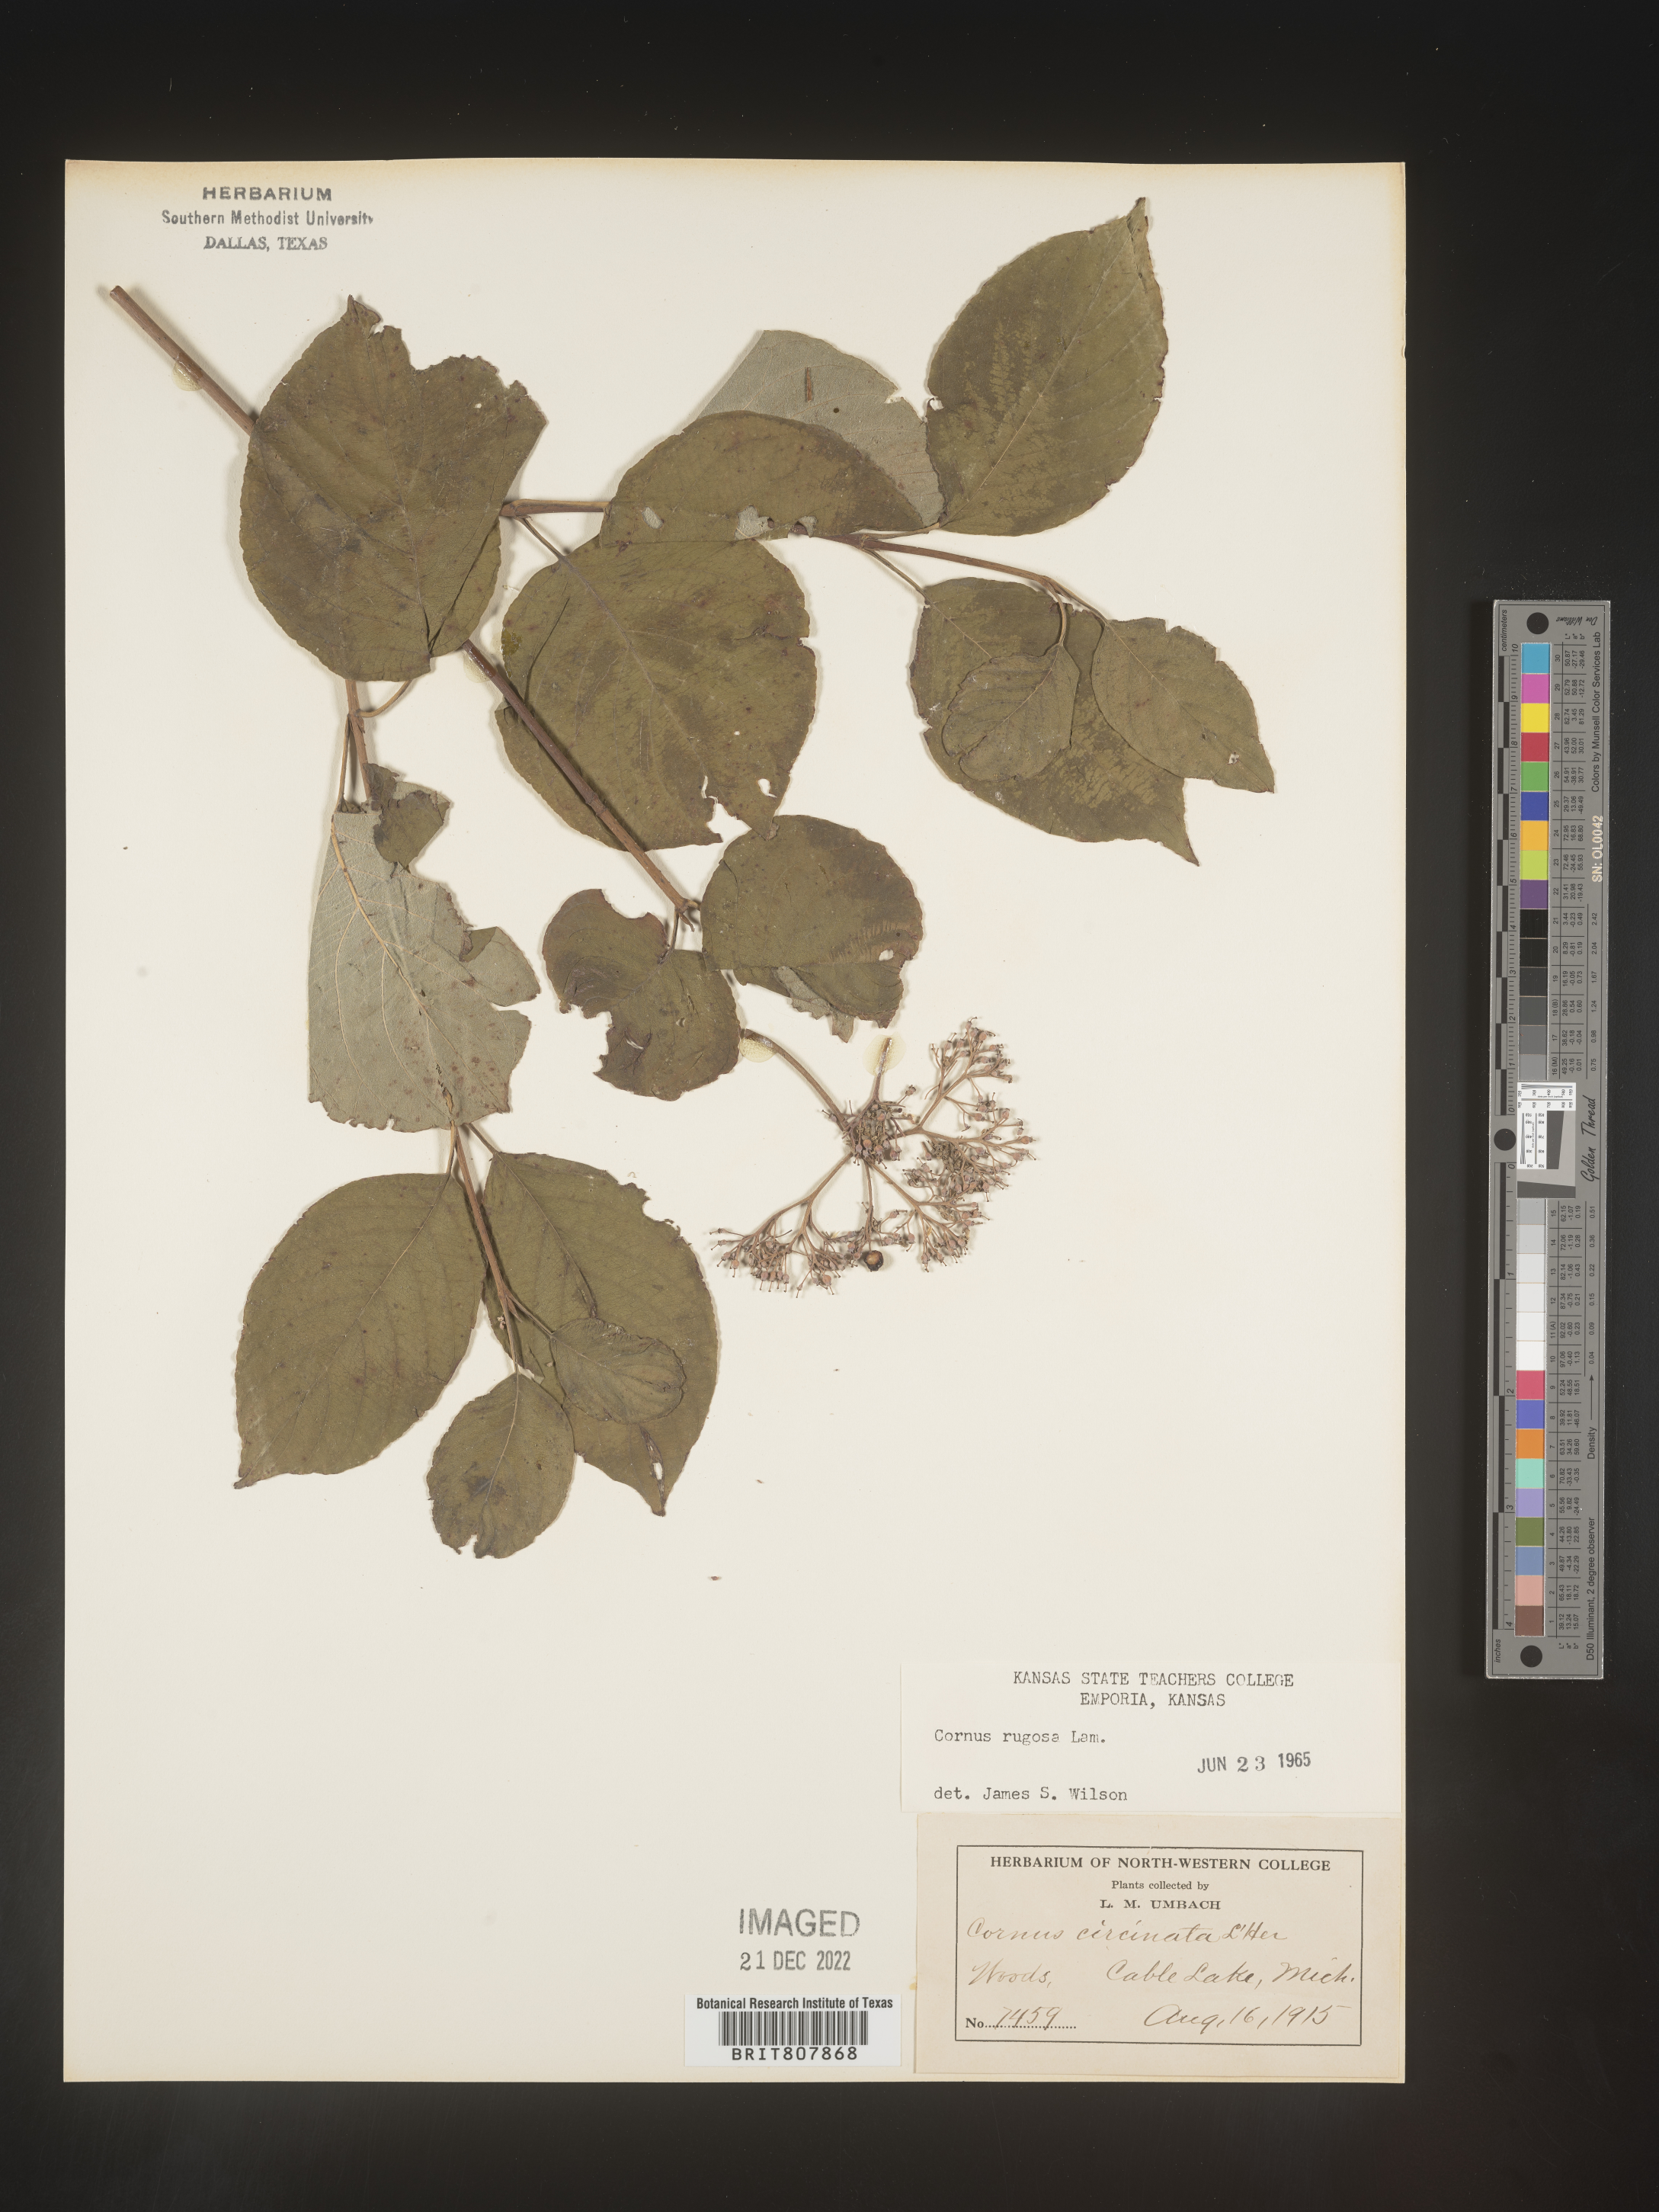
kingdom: Plantae
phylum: Tracheophyta
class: Magnoliopsida
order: Cornales
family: Cornaceae
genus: Cornus
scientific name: Cornus rugosa
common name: Round-leaf dogwood
